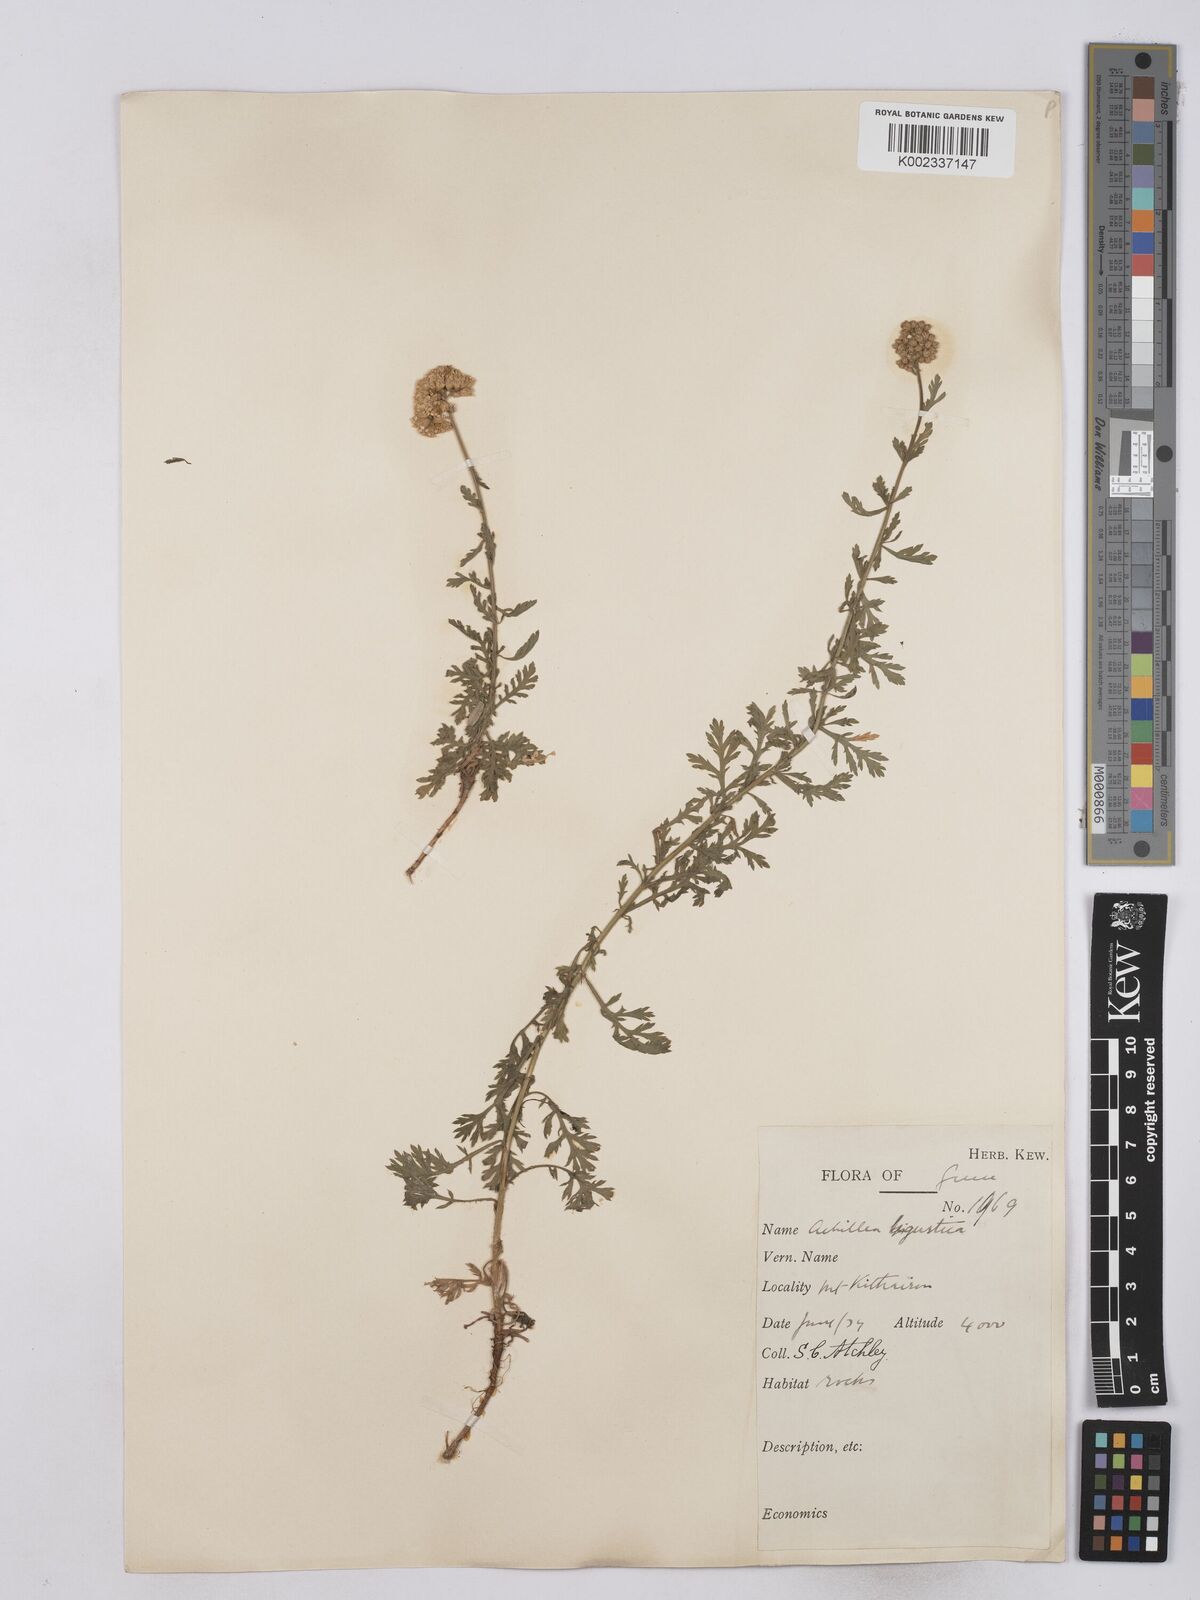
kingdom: Plantae
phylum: Tracheophyta
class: Magnoliopsida
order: Asterales
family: Asteraceae
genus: Achillea
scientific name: Achillea ligustica
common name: Southern yarrow
